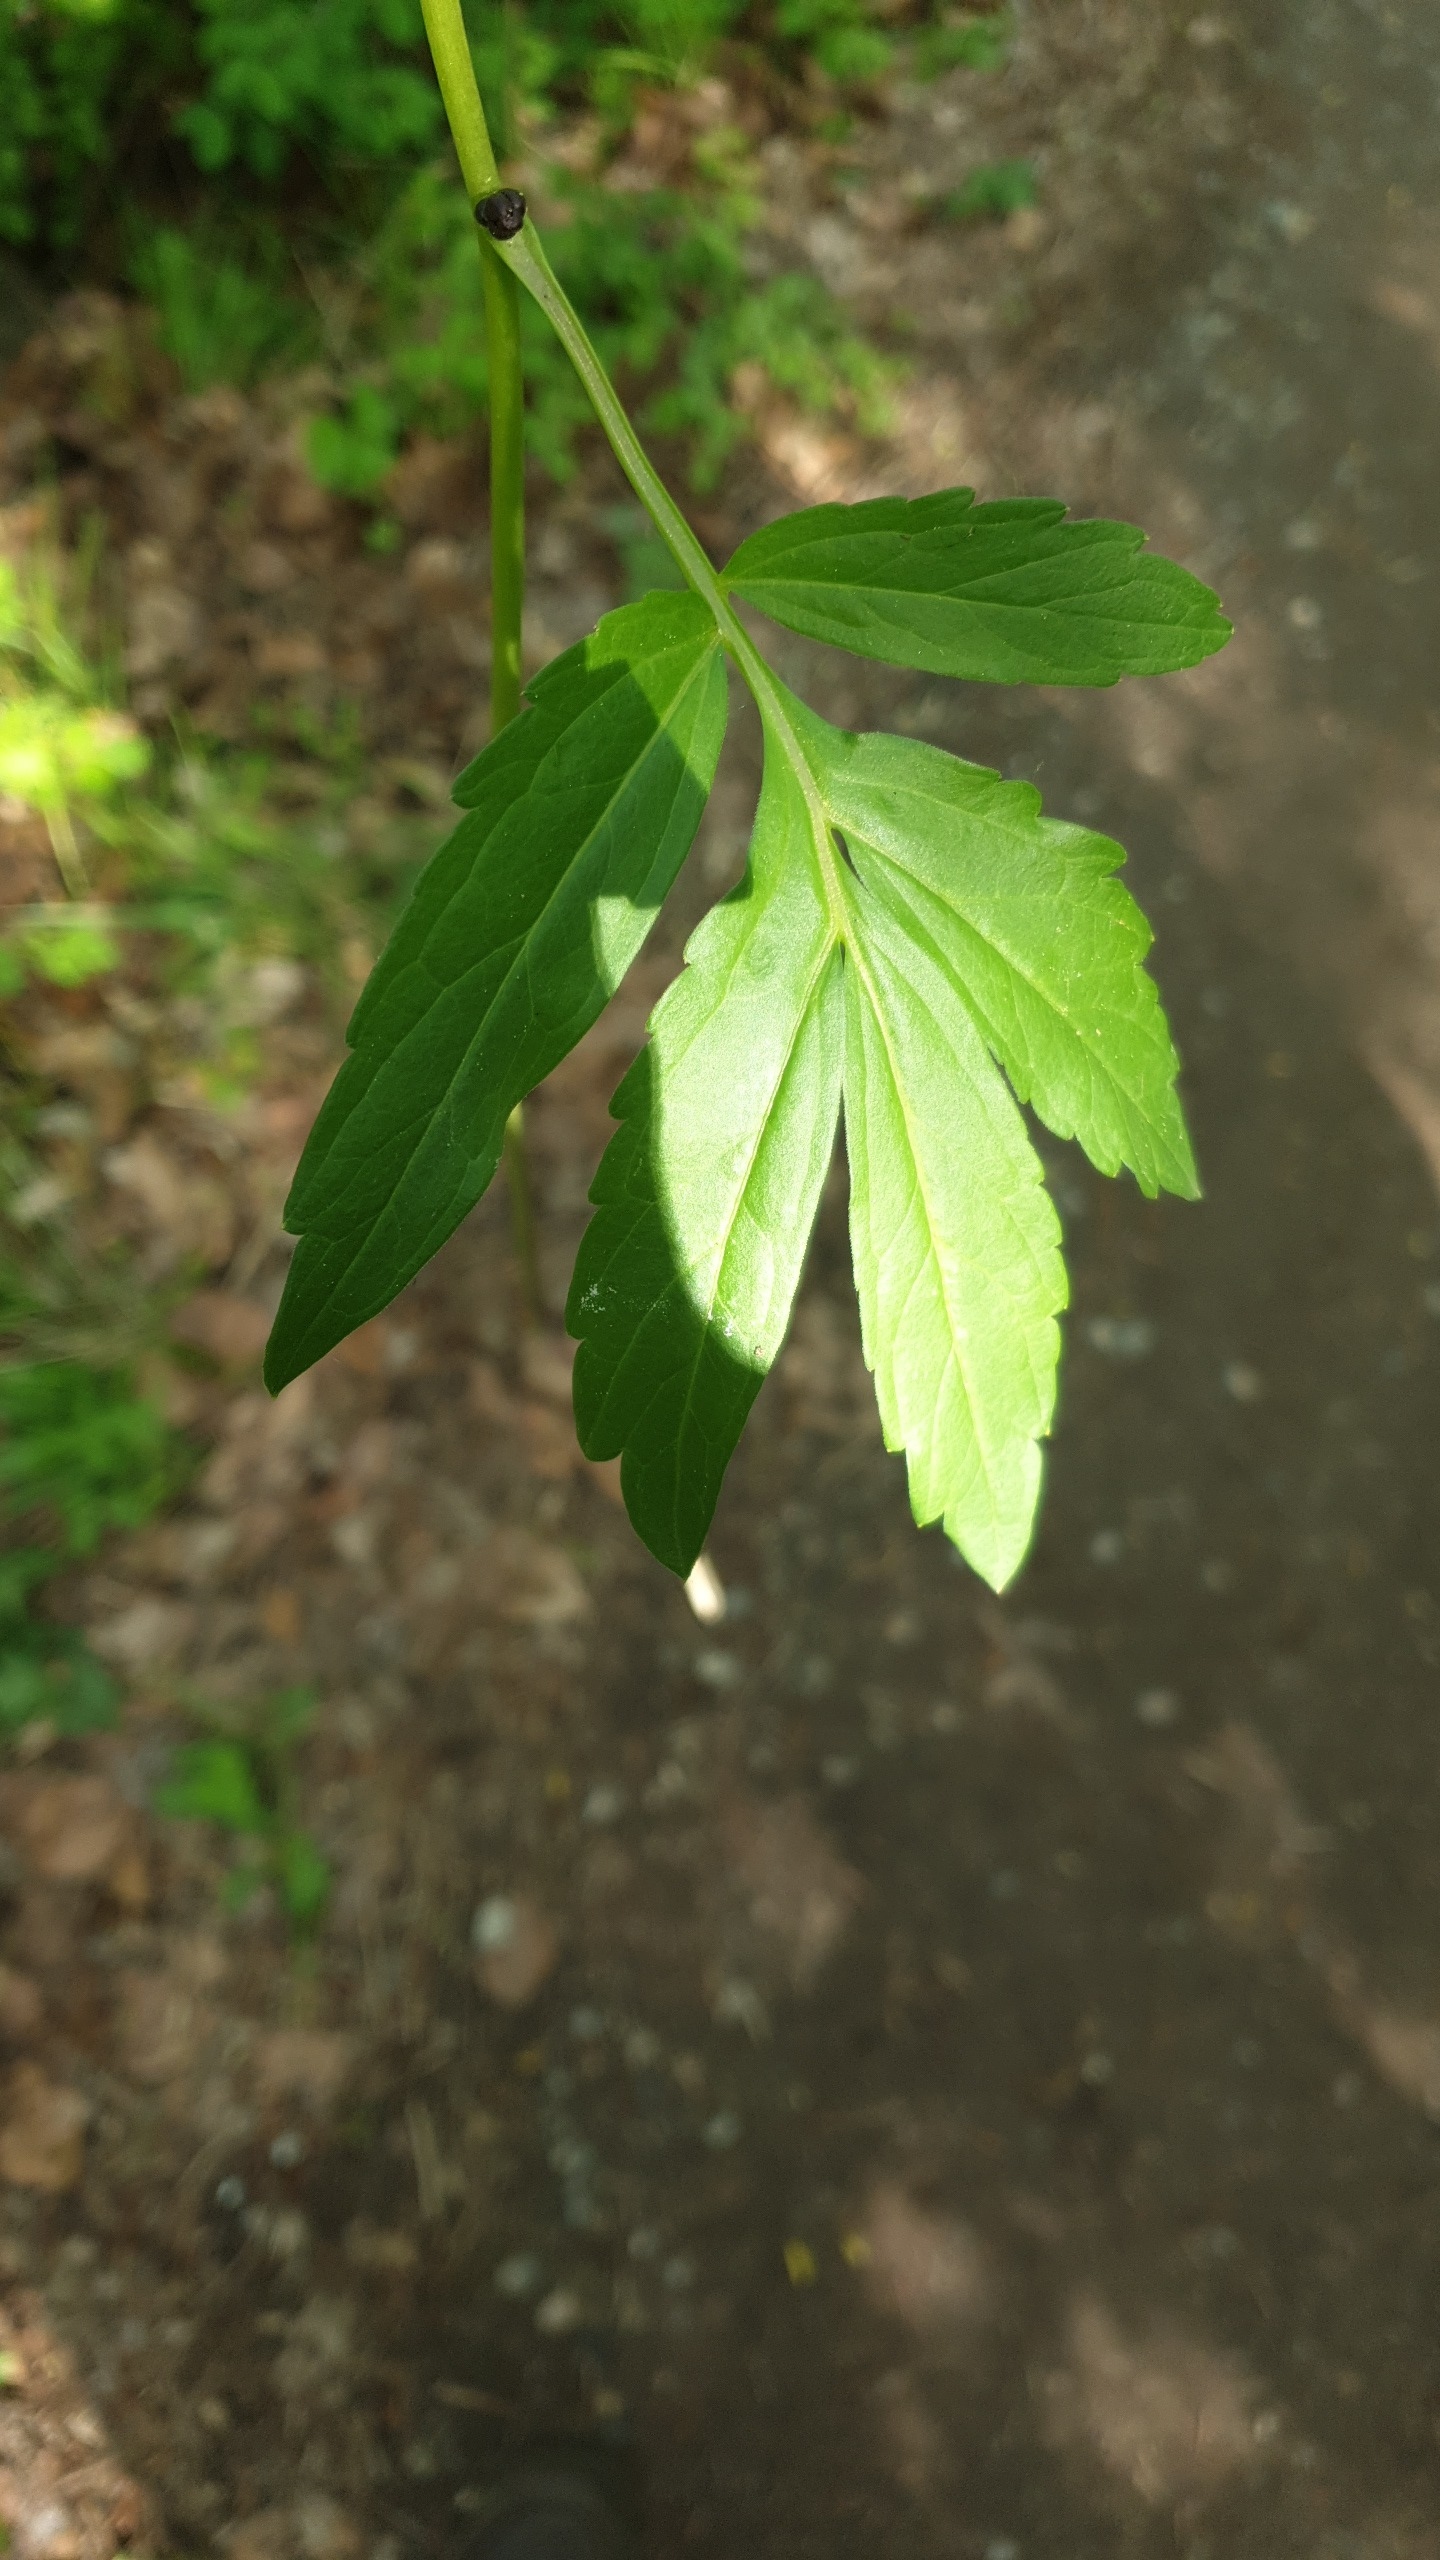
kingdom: Plantae
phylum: Tracheophyta
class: Magnoliopsida
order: Brassicales
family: Brassicaceae
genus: Cardamine
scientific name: Cardamine bulbifera
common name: Tandrod
